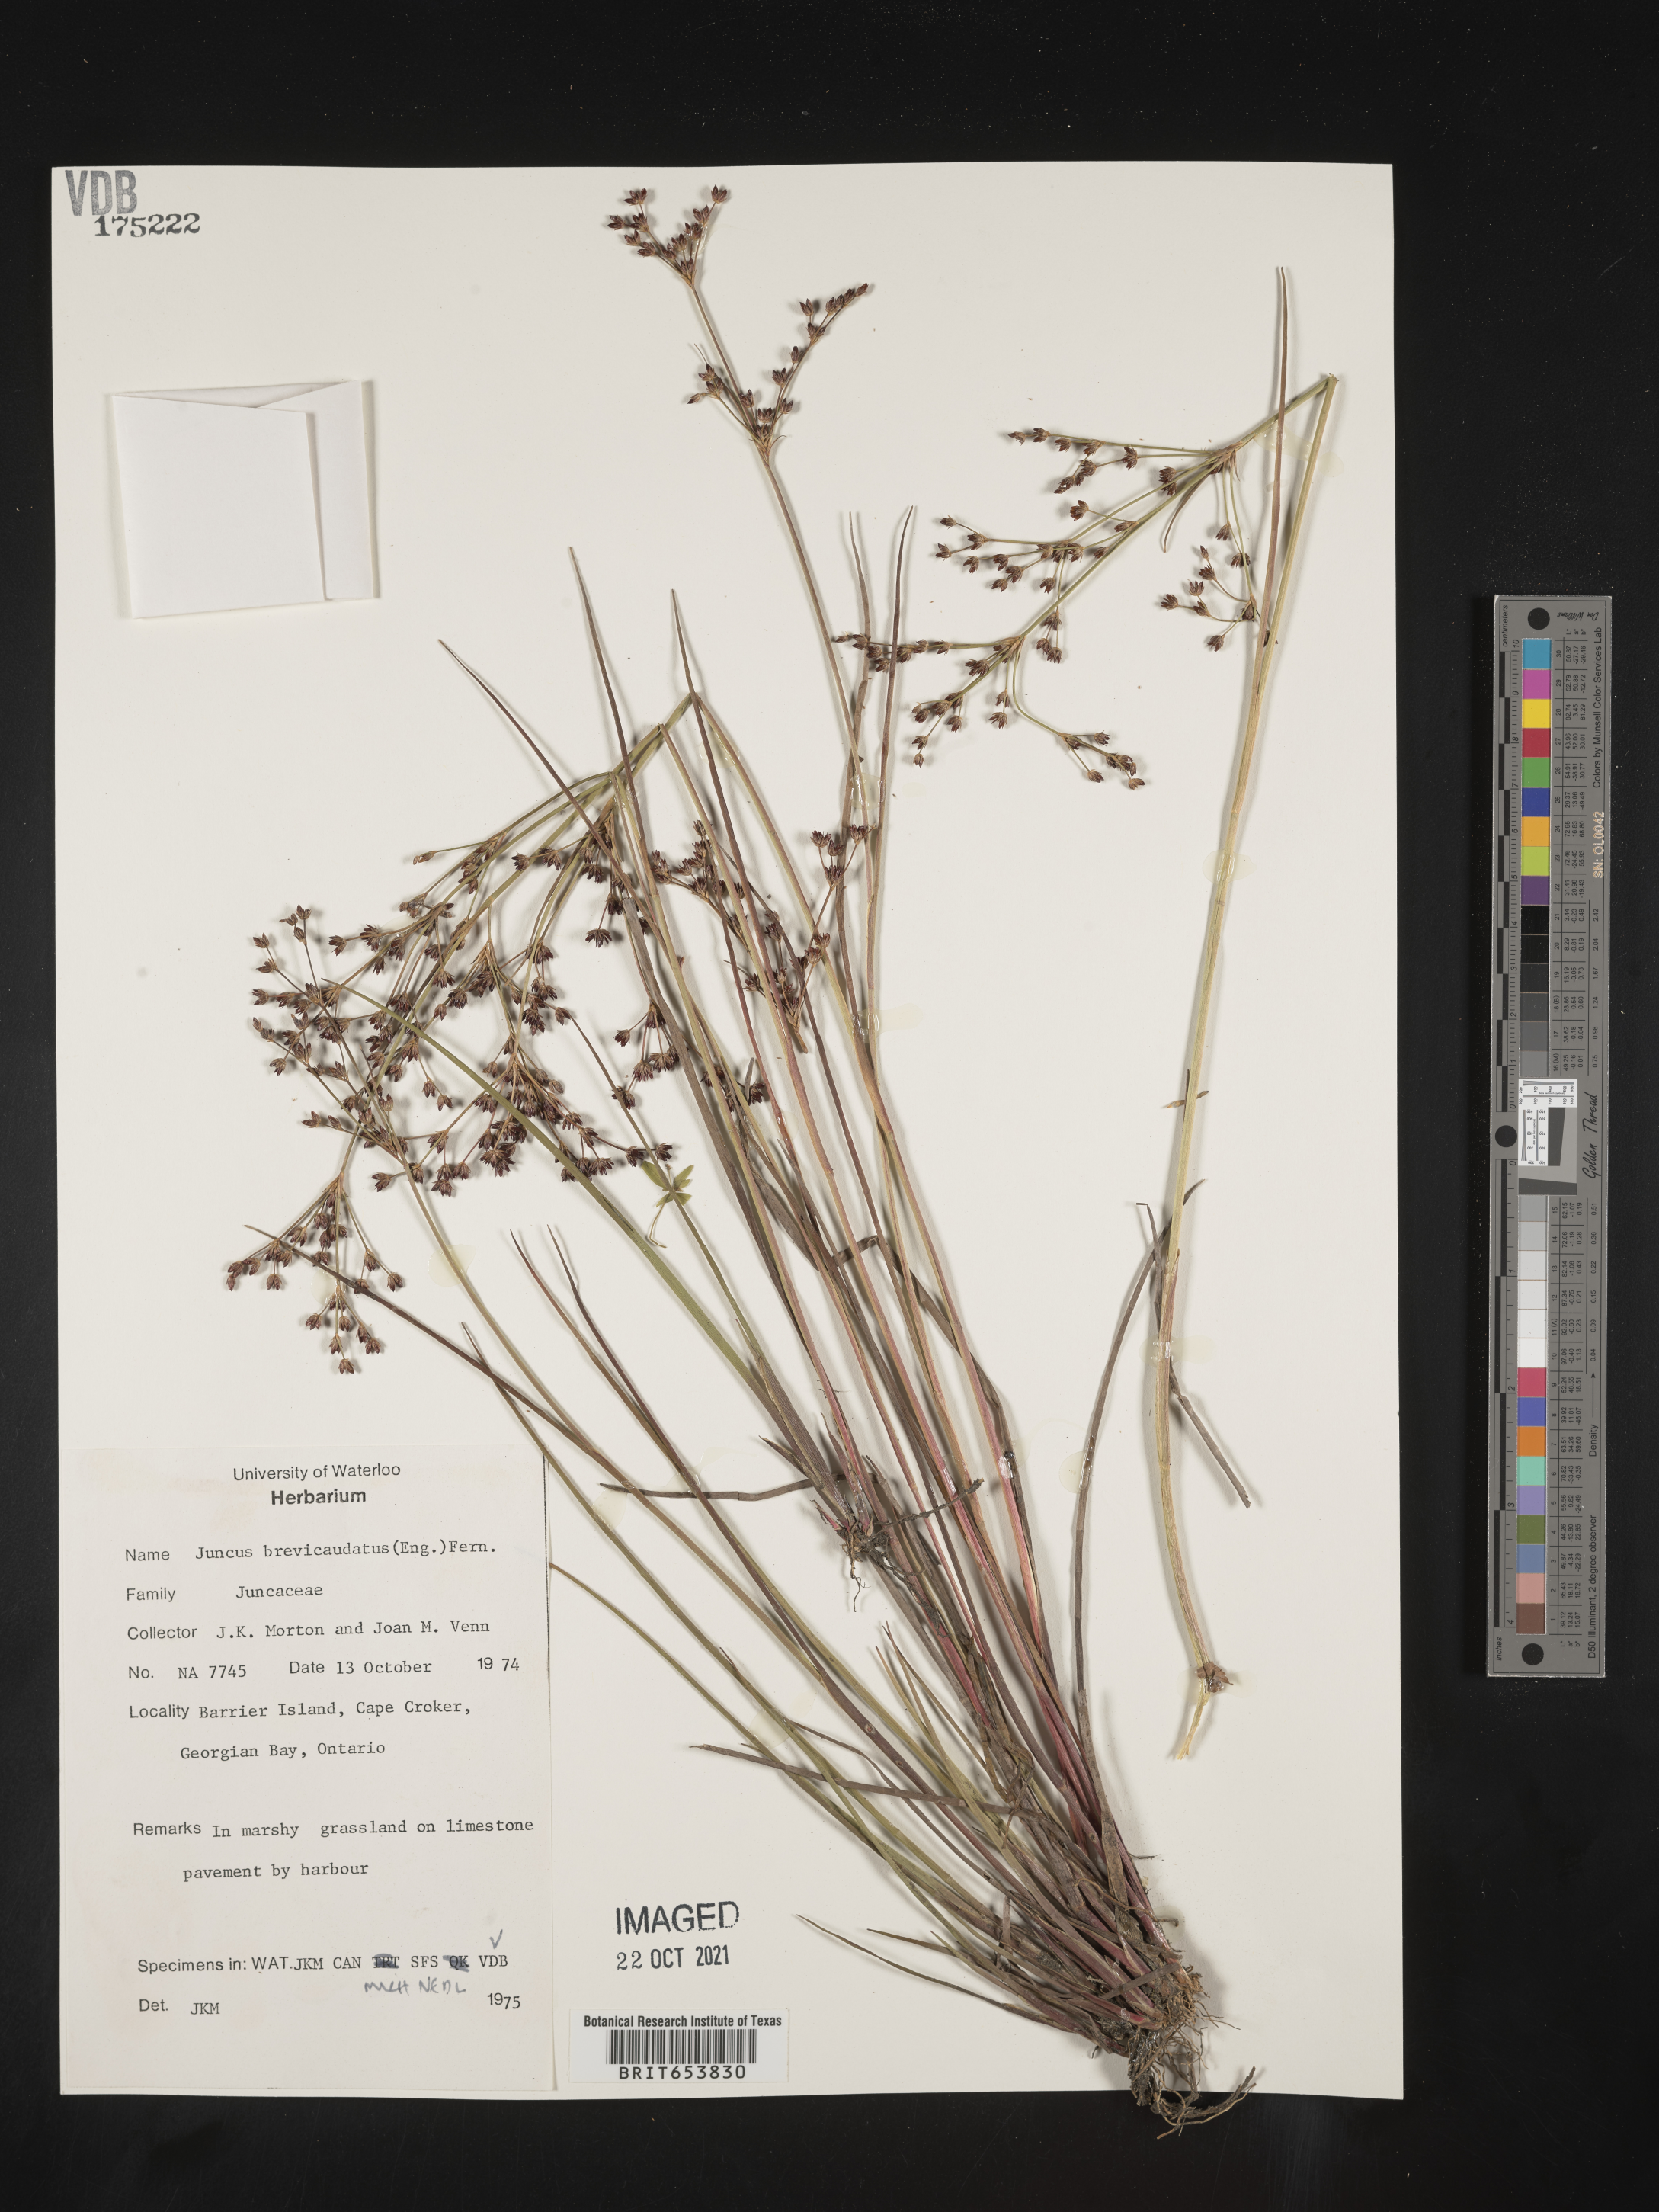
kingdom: Plantae
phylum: Tracheophyta
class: Liliopsida
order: Poales
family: Juncaceae
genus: Juncus
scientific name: Juncus brevicaudatus
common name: Narrow-panicle rush
